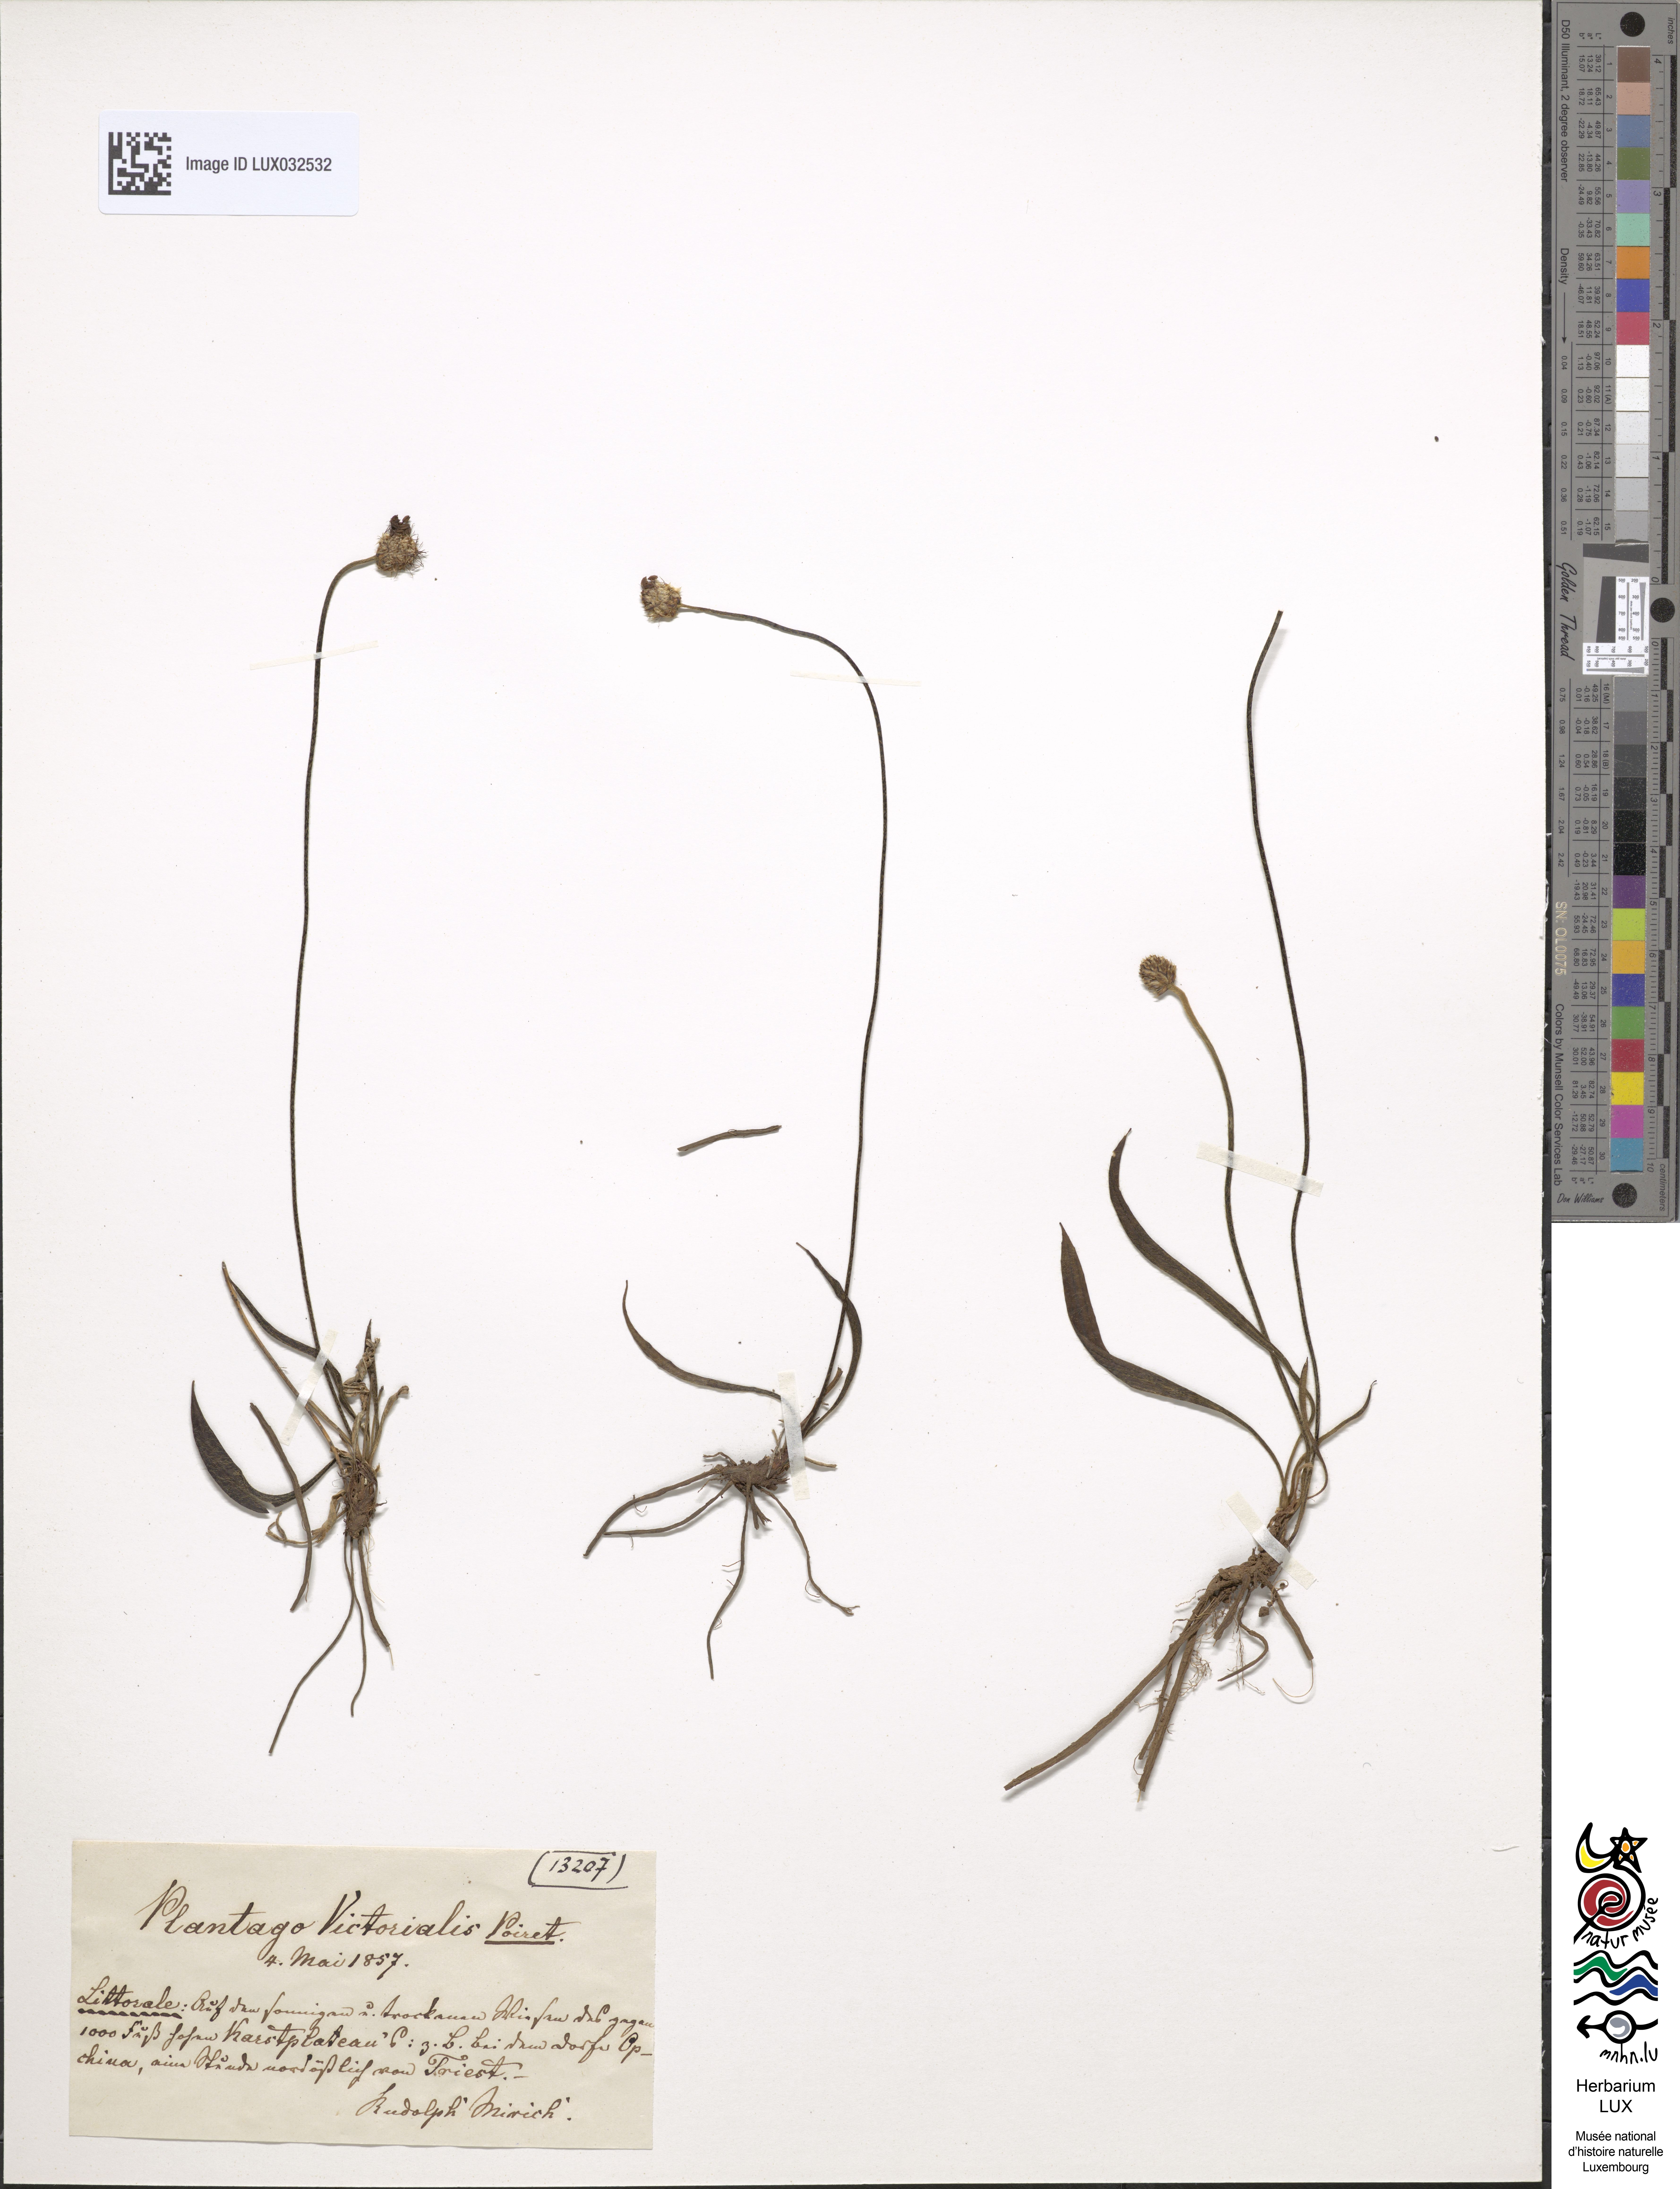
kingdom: Plantae
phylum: Tracheophyta
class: Magnoliopsida
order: Lamiales
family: Plantaginaceae
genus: Plantago
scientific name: Plantago argentea
